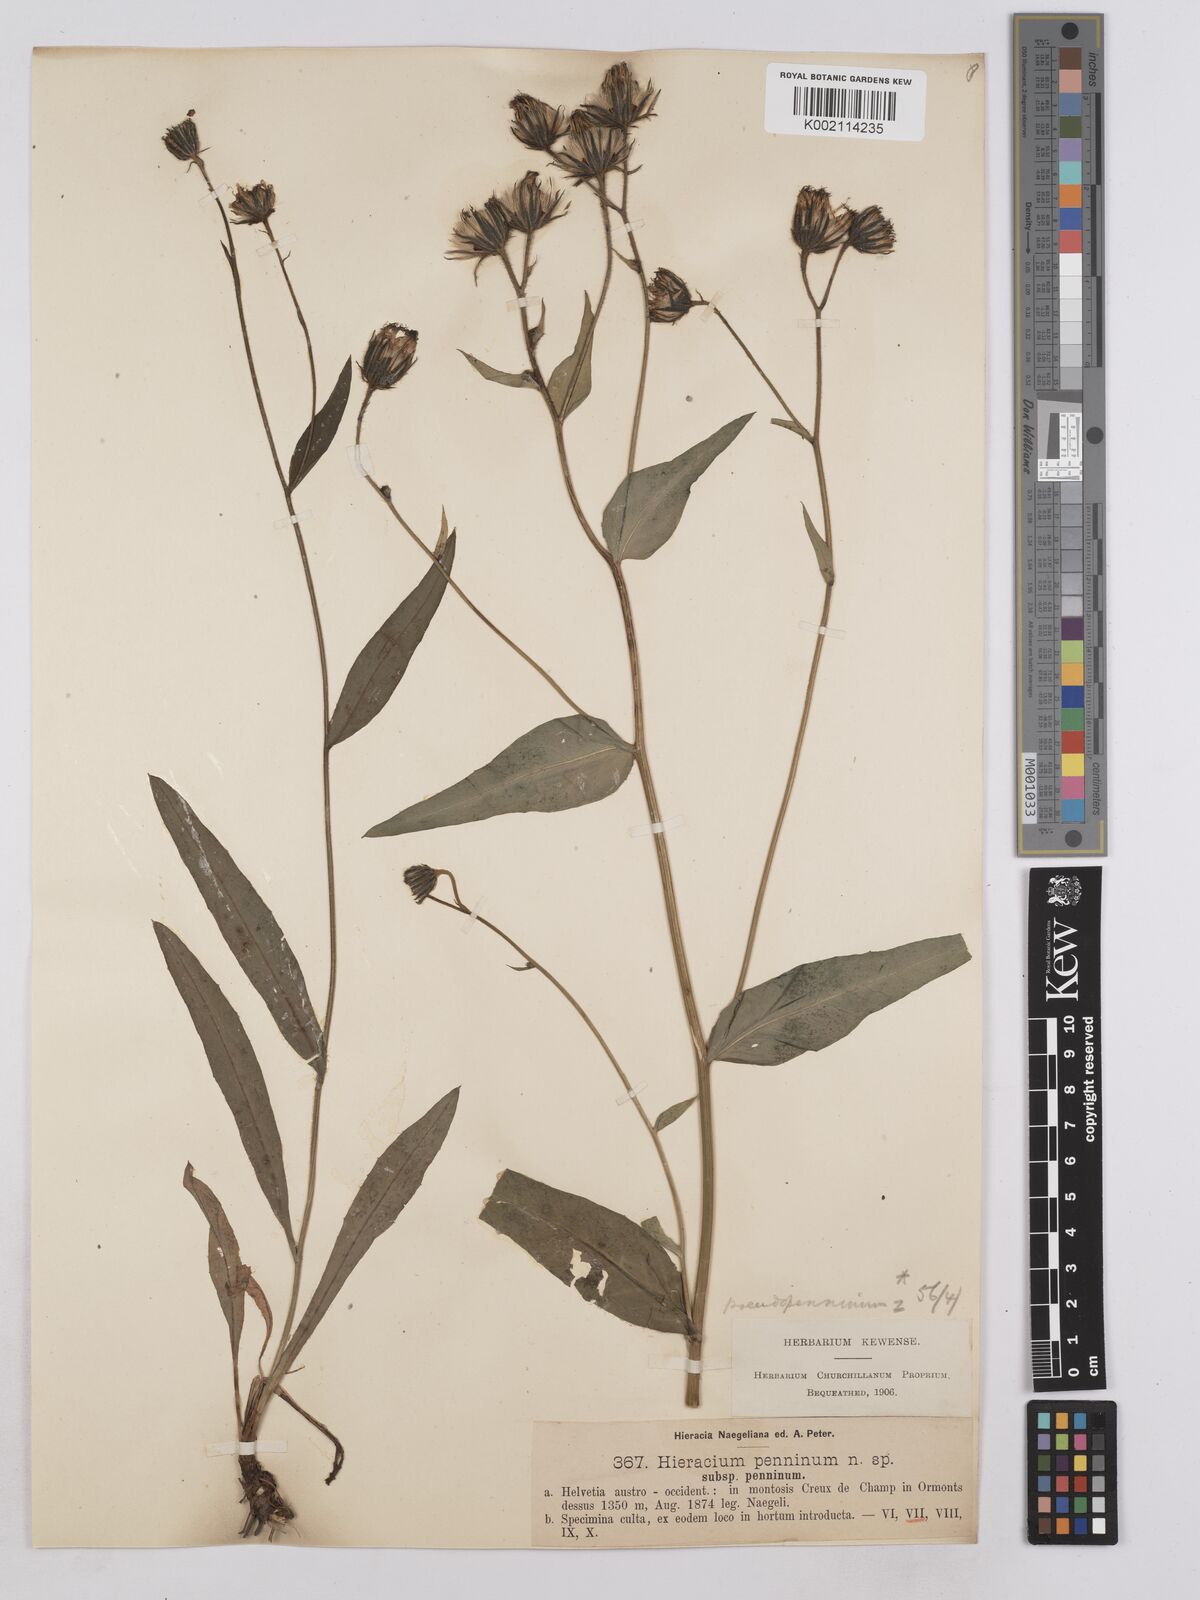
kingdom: Plantae
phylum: Tracheophyta
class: Magnoliopsida
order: Asterales
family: Asteraceae
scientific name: Asteraceae
